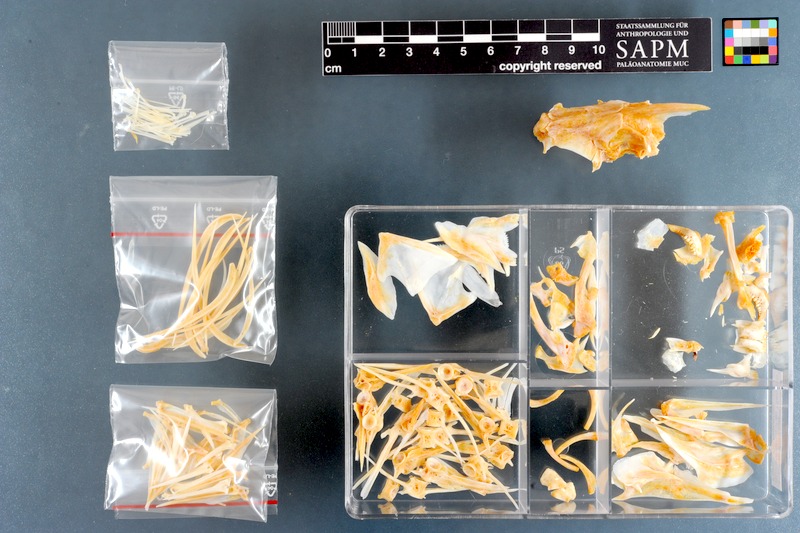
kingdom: Animalia
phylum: Chordata
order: Perciformes
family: Dichistiidae
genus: Dichistius
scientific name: Dichistius capensis
